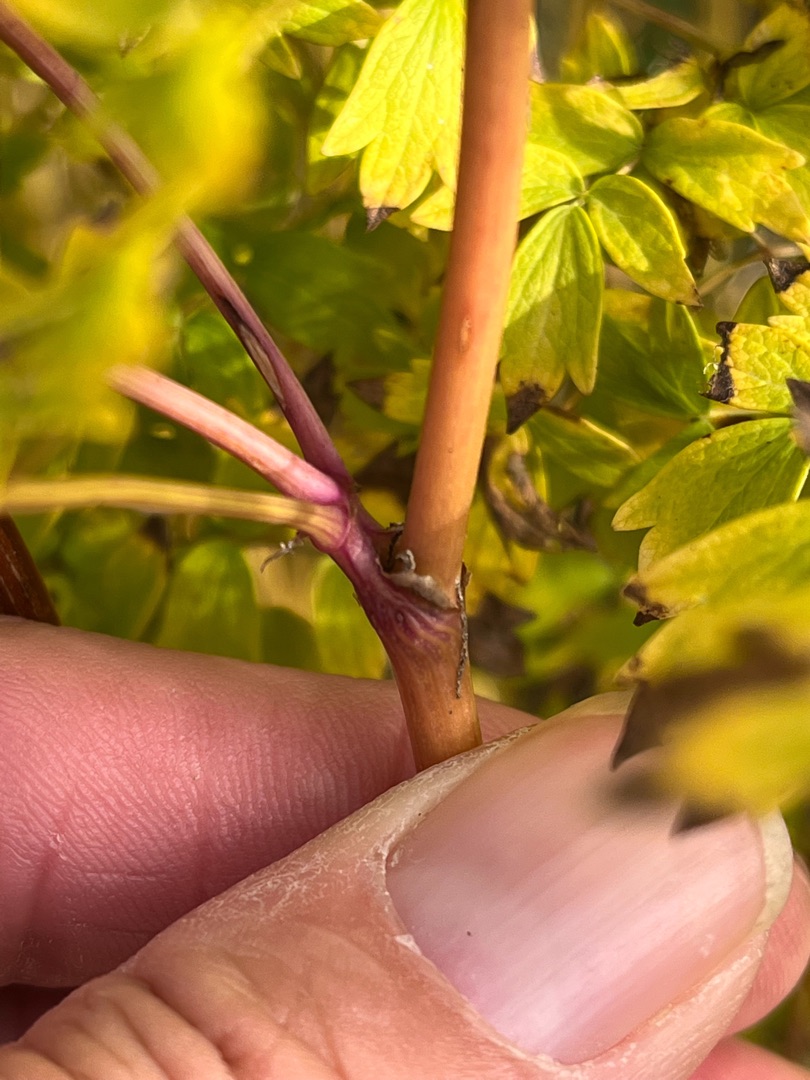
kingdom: Plantae
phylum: Tracheophyta
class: Magnoliopsida
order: Ranunculales
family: Ranunculaceae
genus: Thalictrum
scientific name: Thalictrum flavum
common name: Gul frøstjerne
